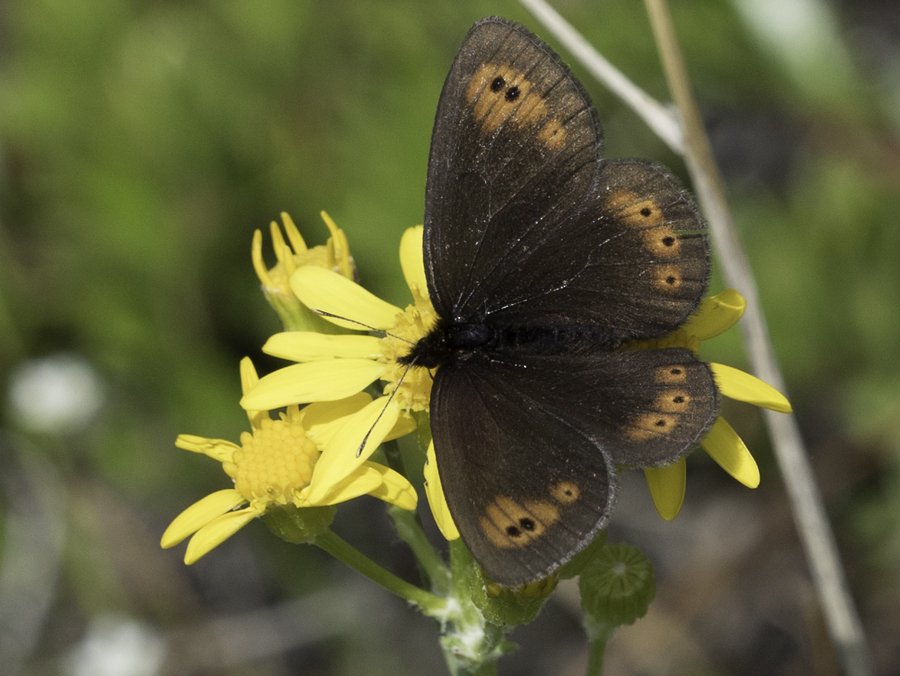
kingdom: Animalia
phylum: Arthropoda
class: Insecta
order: Lepidoptera
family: Nymphalidae
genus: Erebia
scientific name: Erebia epipsodea
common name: Common Alpine
